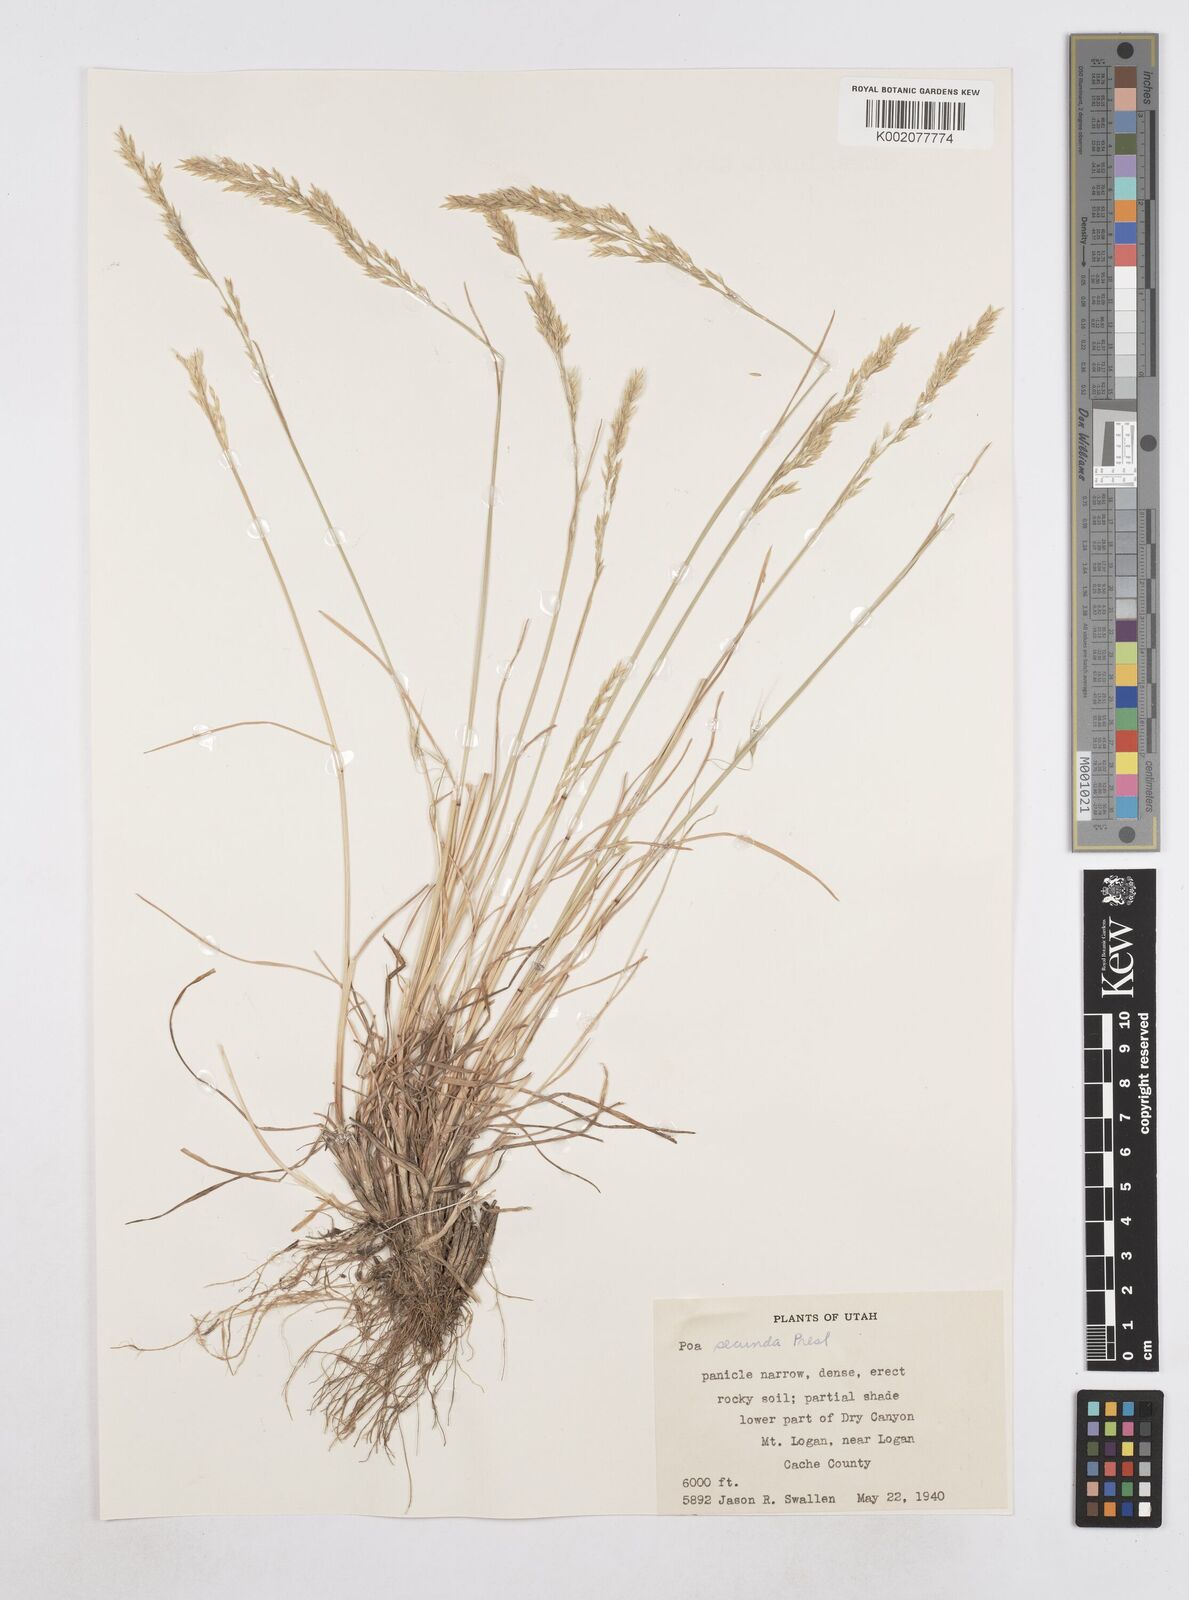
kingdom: Plantae
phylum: Tracheophyta
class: Liliopsida
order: Poales
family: Poaceae
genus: Poa
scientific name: Poa secunda
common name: Sandberg bluegrass
